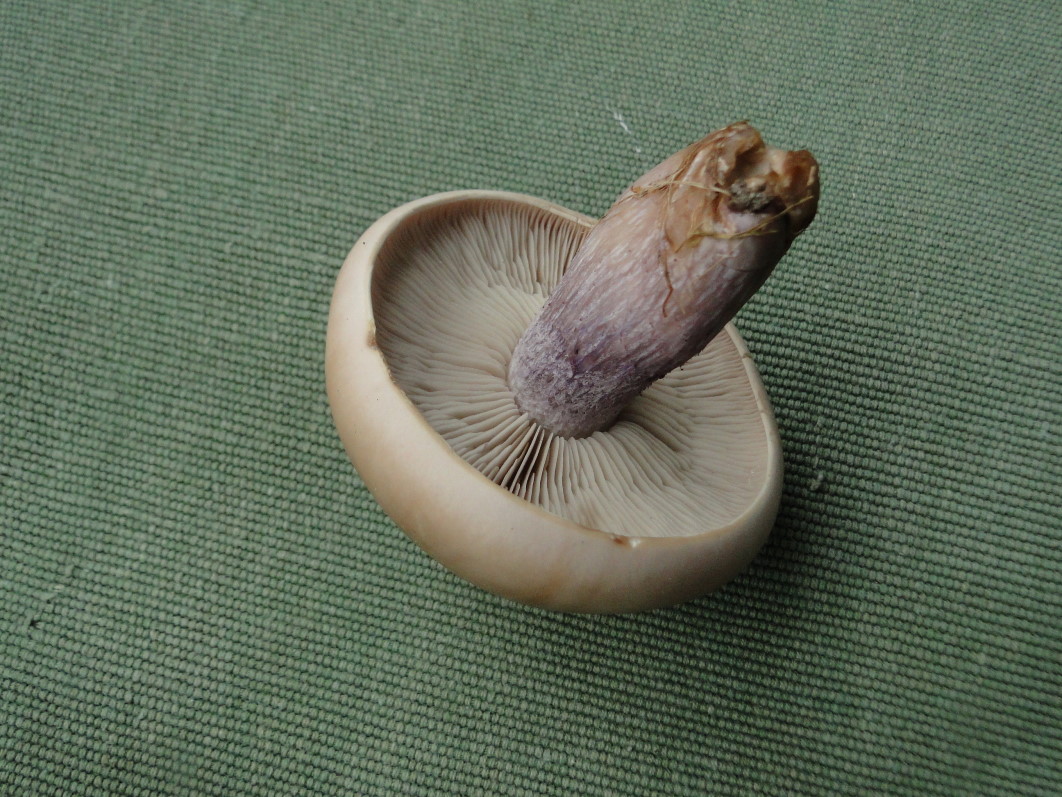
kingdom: Fungi
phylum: Basidiomycota
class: Agaricomycetes
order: Agaricales
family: Tricholomataceae
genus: Lepista
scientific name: Lepista personata
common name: bleg hekseringshat
